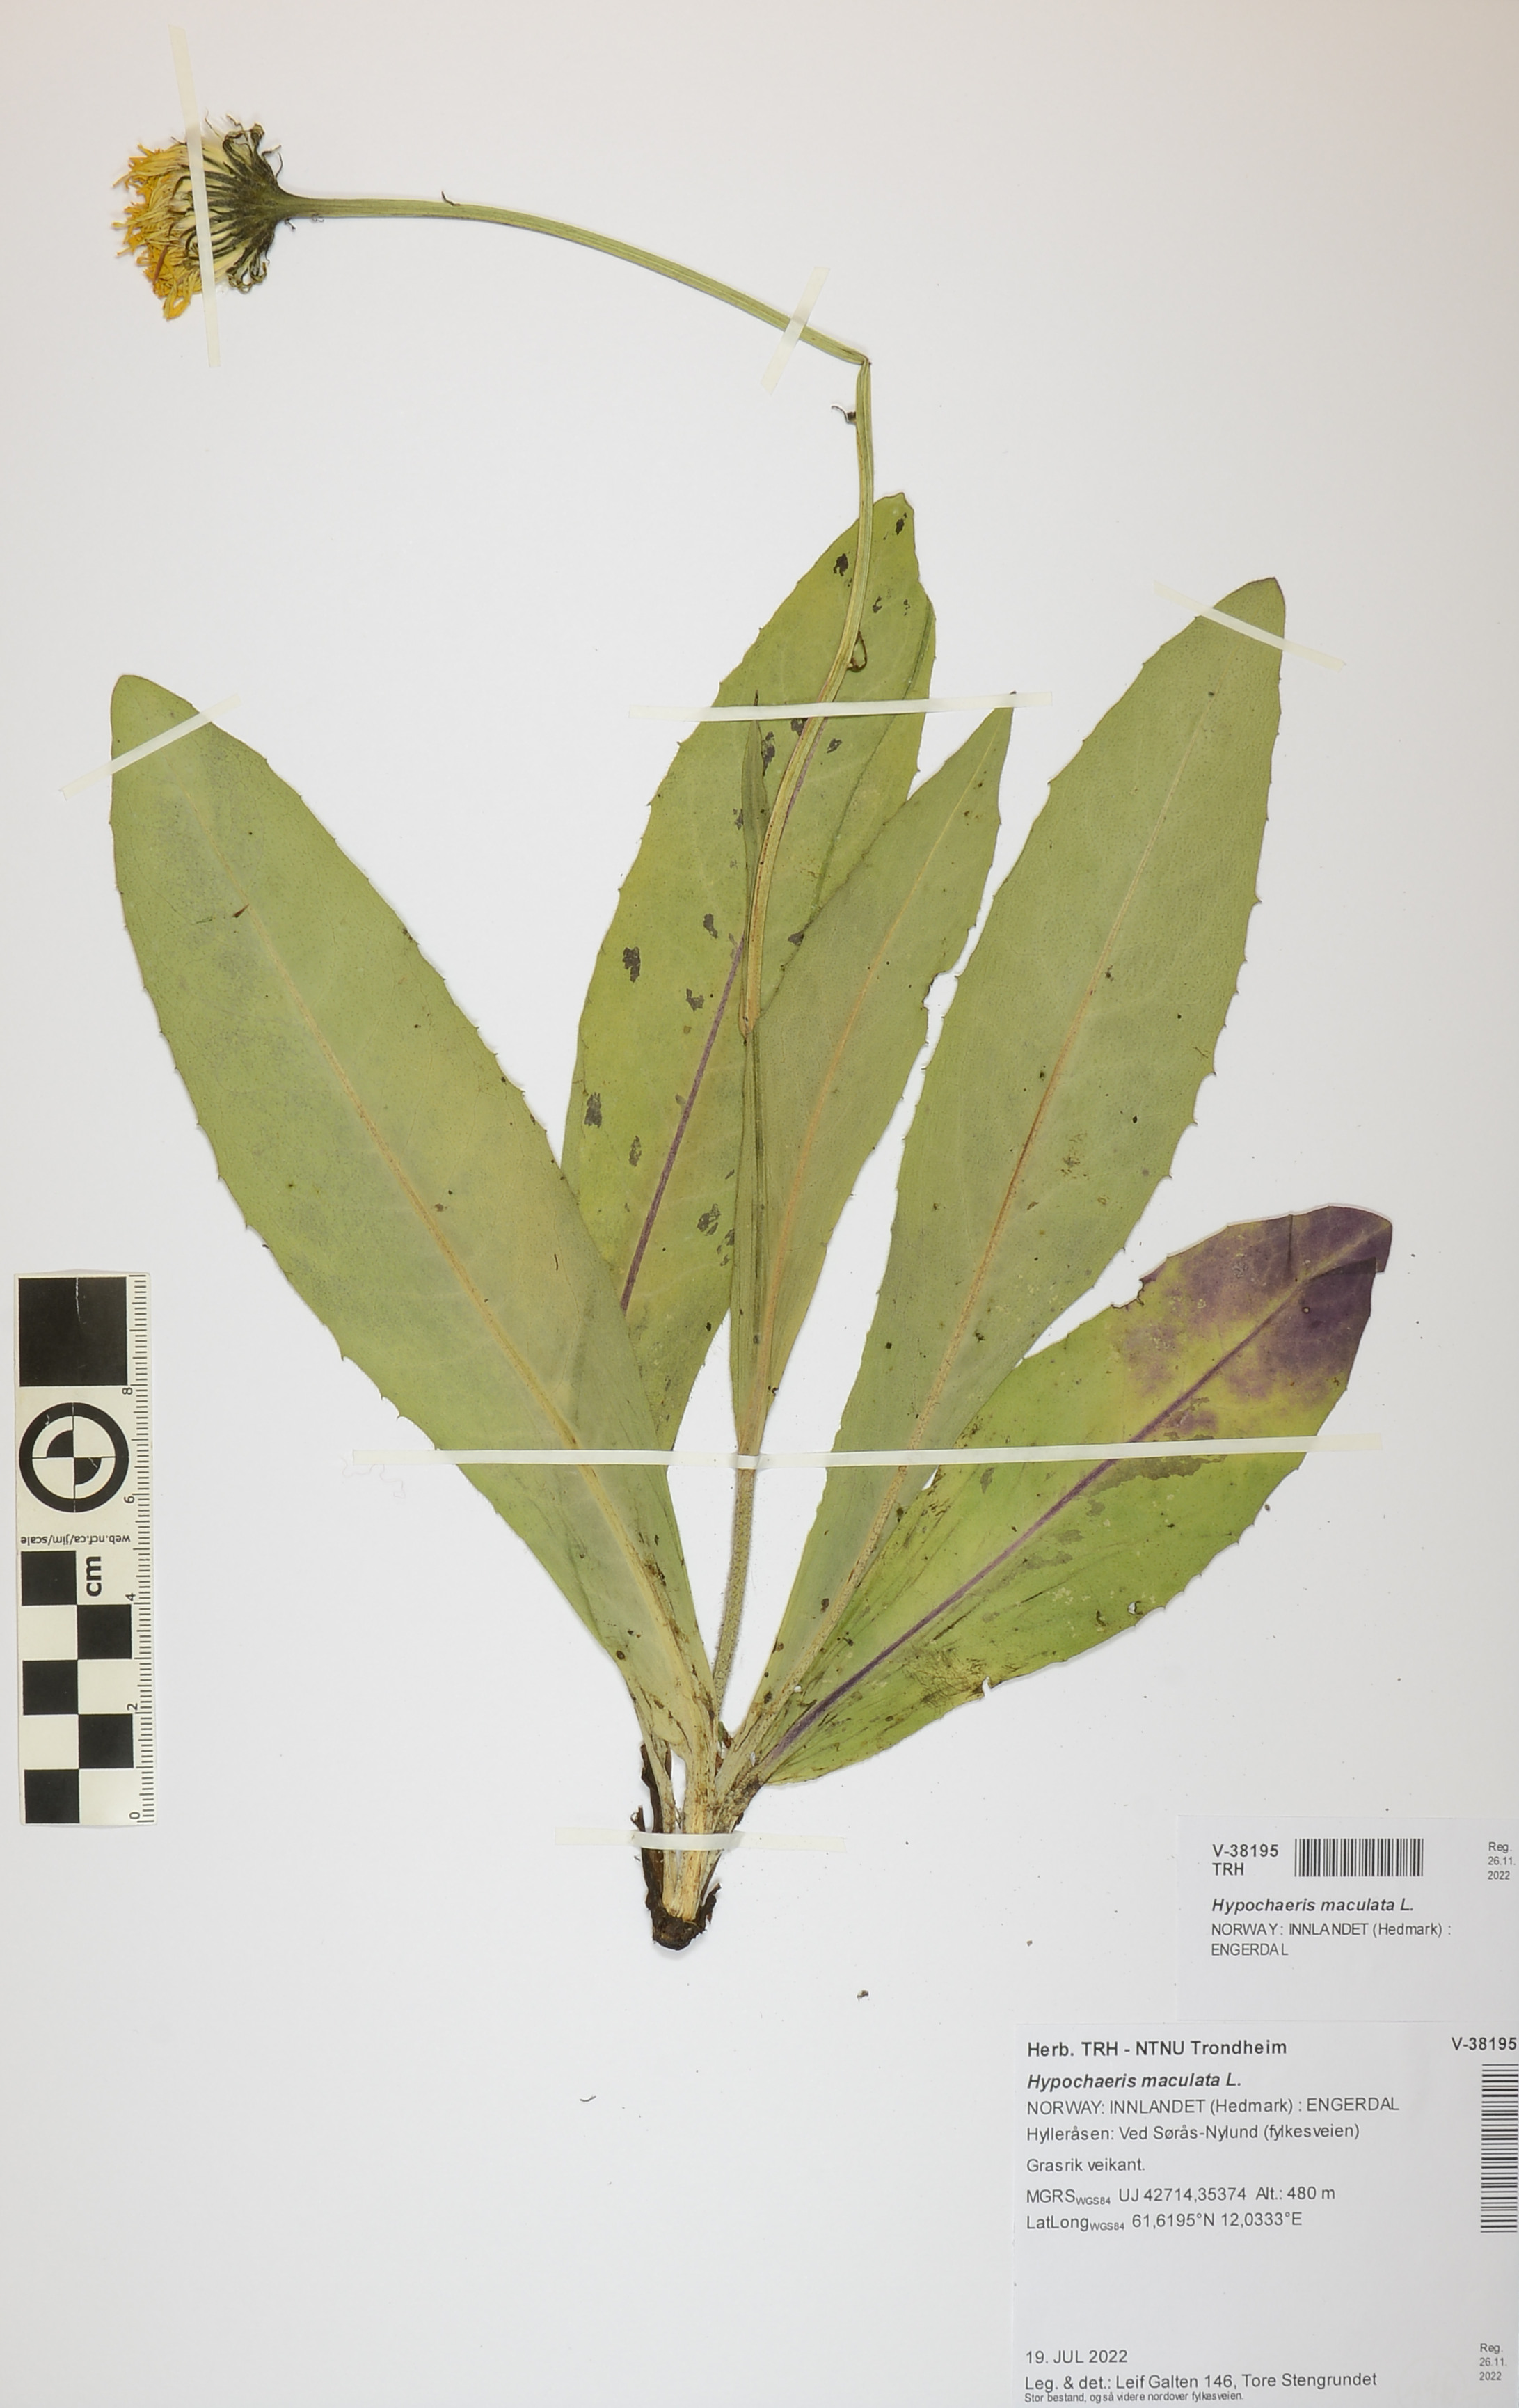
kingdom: Plantae
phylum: Tracheophyta
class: Magnoliopsida
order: Asterales
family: Asteraceae
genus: Trommsdorffia
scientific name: Trommsdorffia maculata
